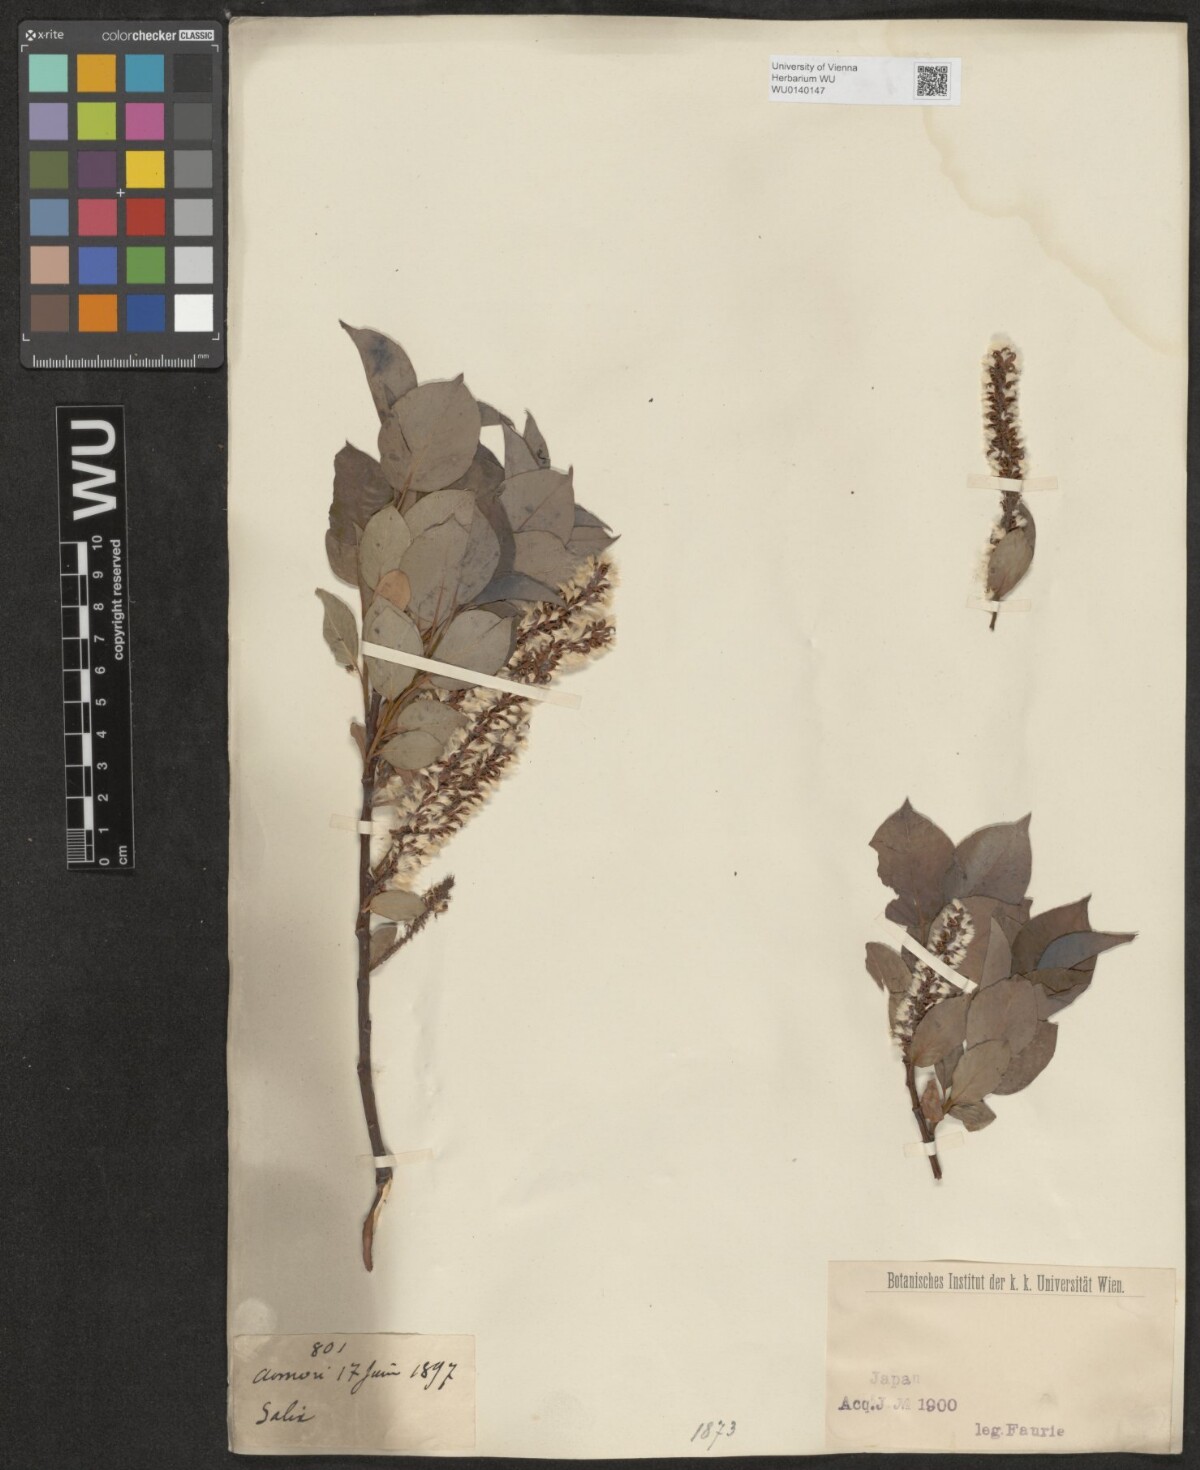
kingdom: Plantae
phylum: Tracheophyta
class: Magnoliopsida
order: Malpighiales
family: Salicaceae
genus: Salix
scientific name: Salix
